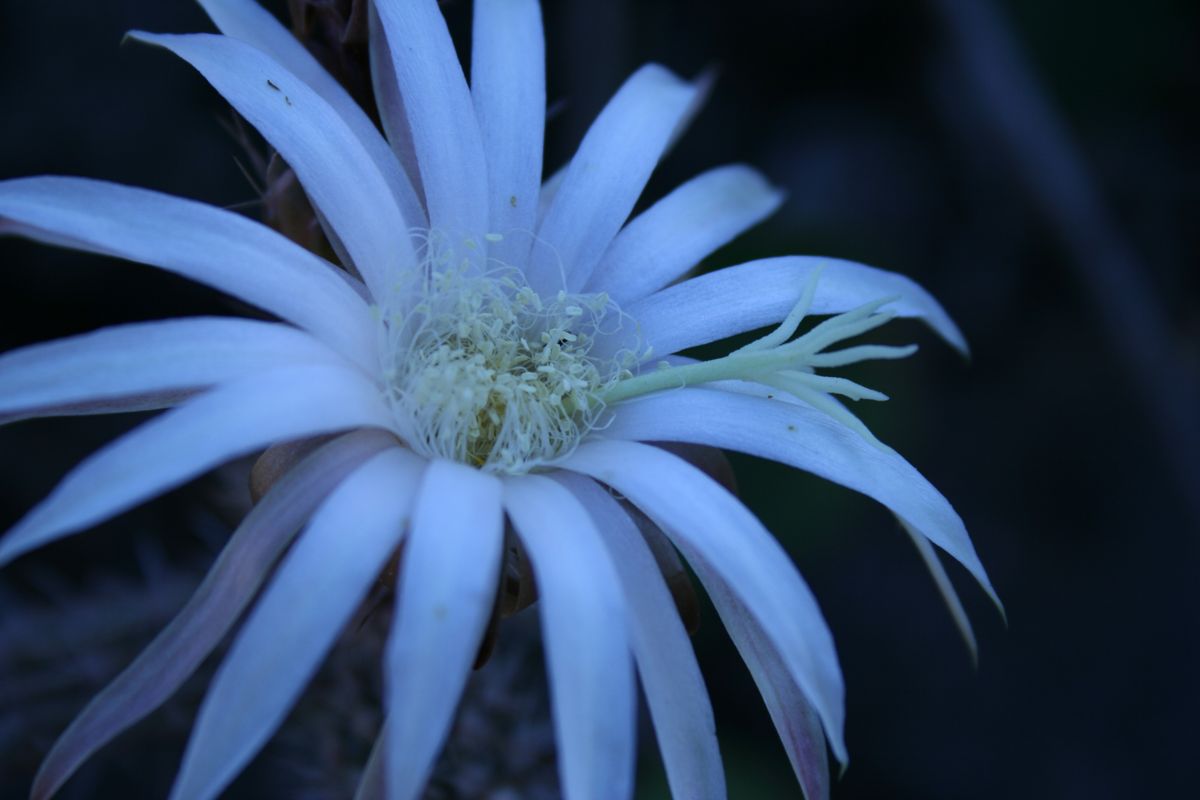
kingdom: Plantae
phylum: Tracheophyta
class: Magnoliopsida
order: Caryophyllales
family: Cactaceae
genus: Acanthocereus
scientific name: Acanthocereus hirschtianus
